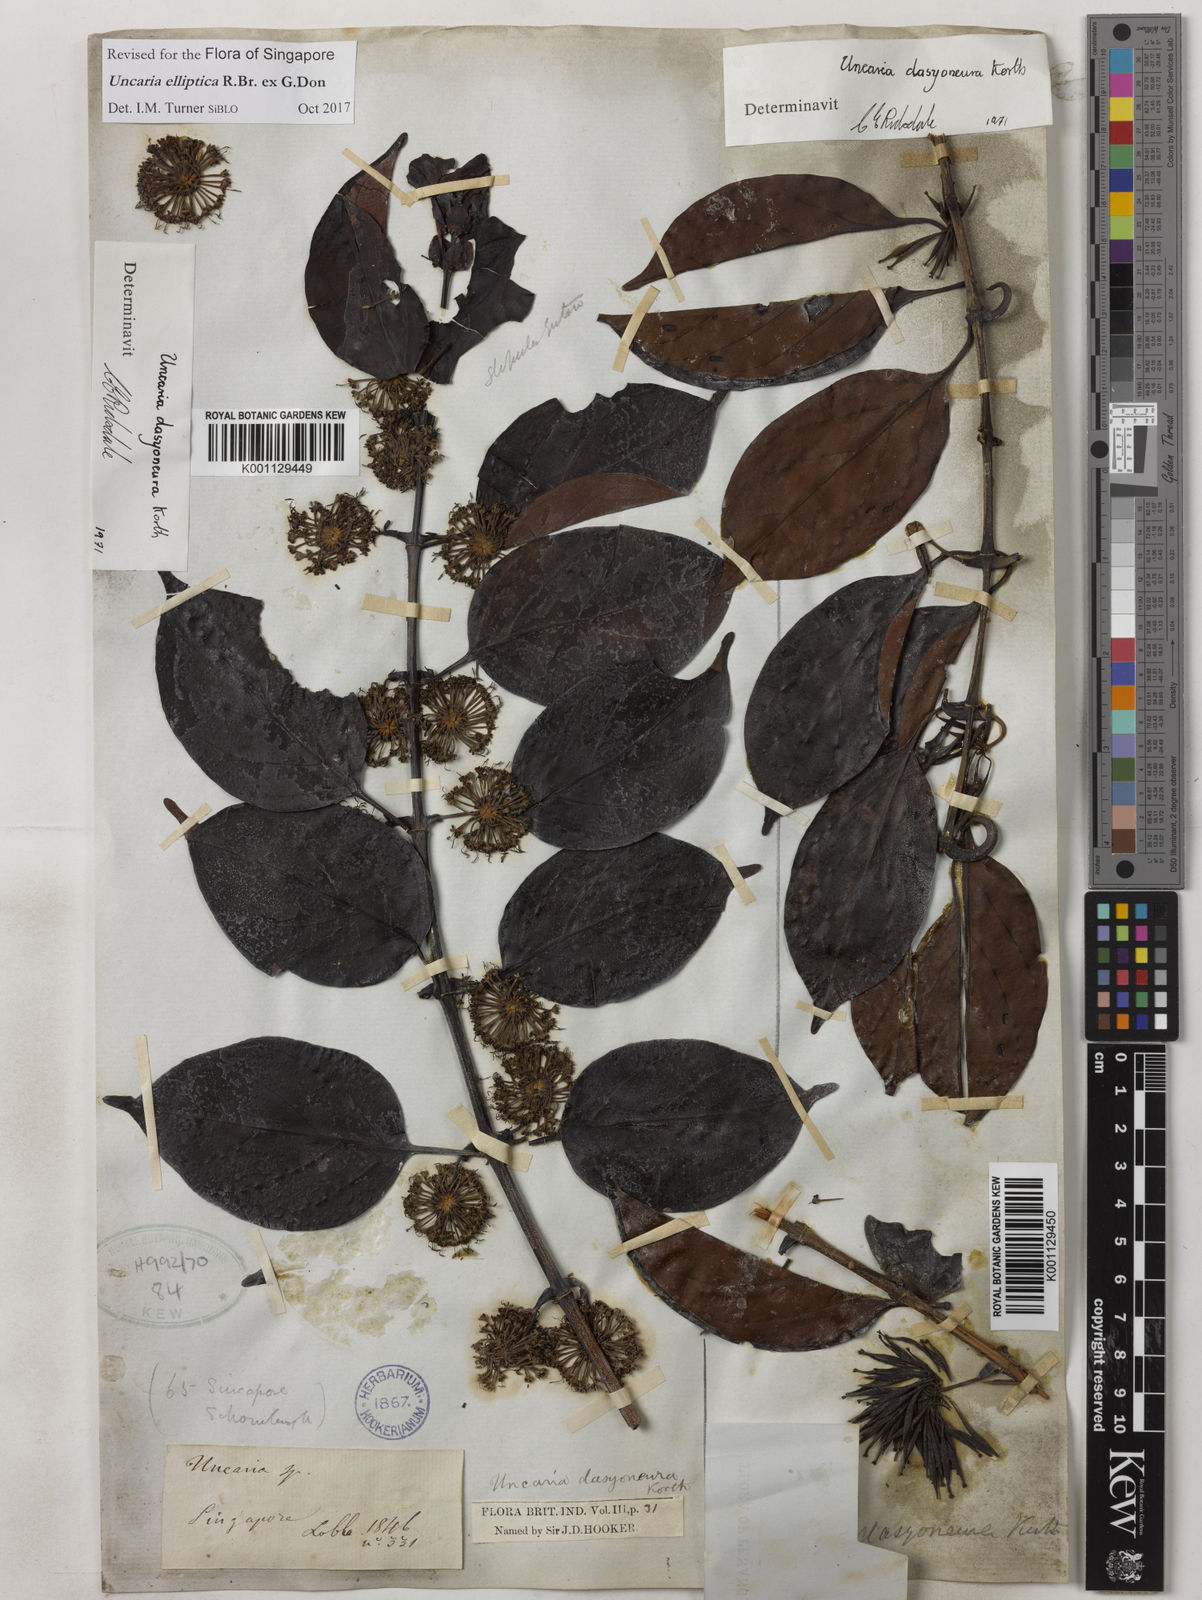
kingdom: Plantae
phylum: Tracheophyta
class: Magnoliopsida
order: Gentianales
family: Rubiaceae
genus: Uncaria
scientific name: Uncaria elliptica
